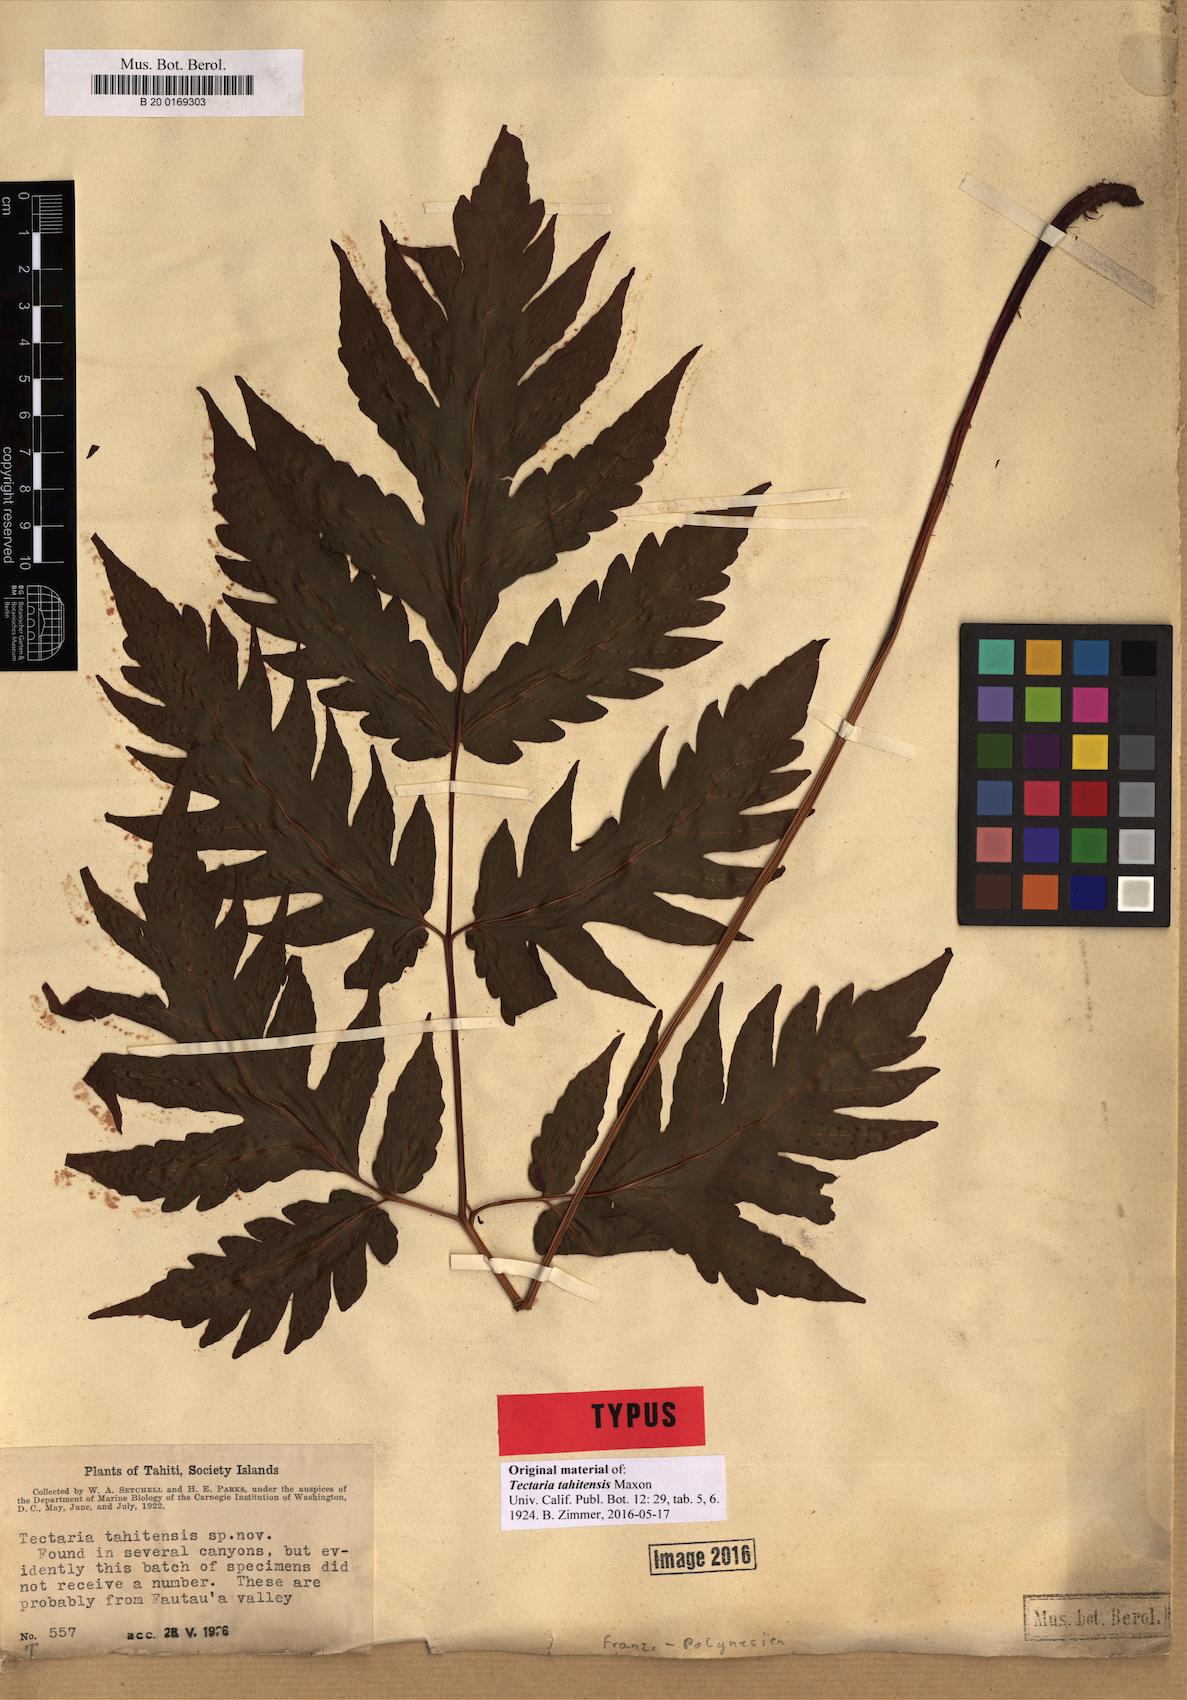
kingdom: Plantae
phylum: Tracheophyta
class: Polypodiopsida
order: Polypodiales
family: Tectariaceae
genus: Tectaria
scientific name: Tectaria lessonii
